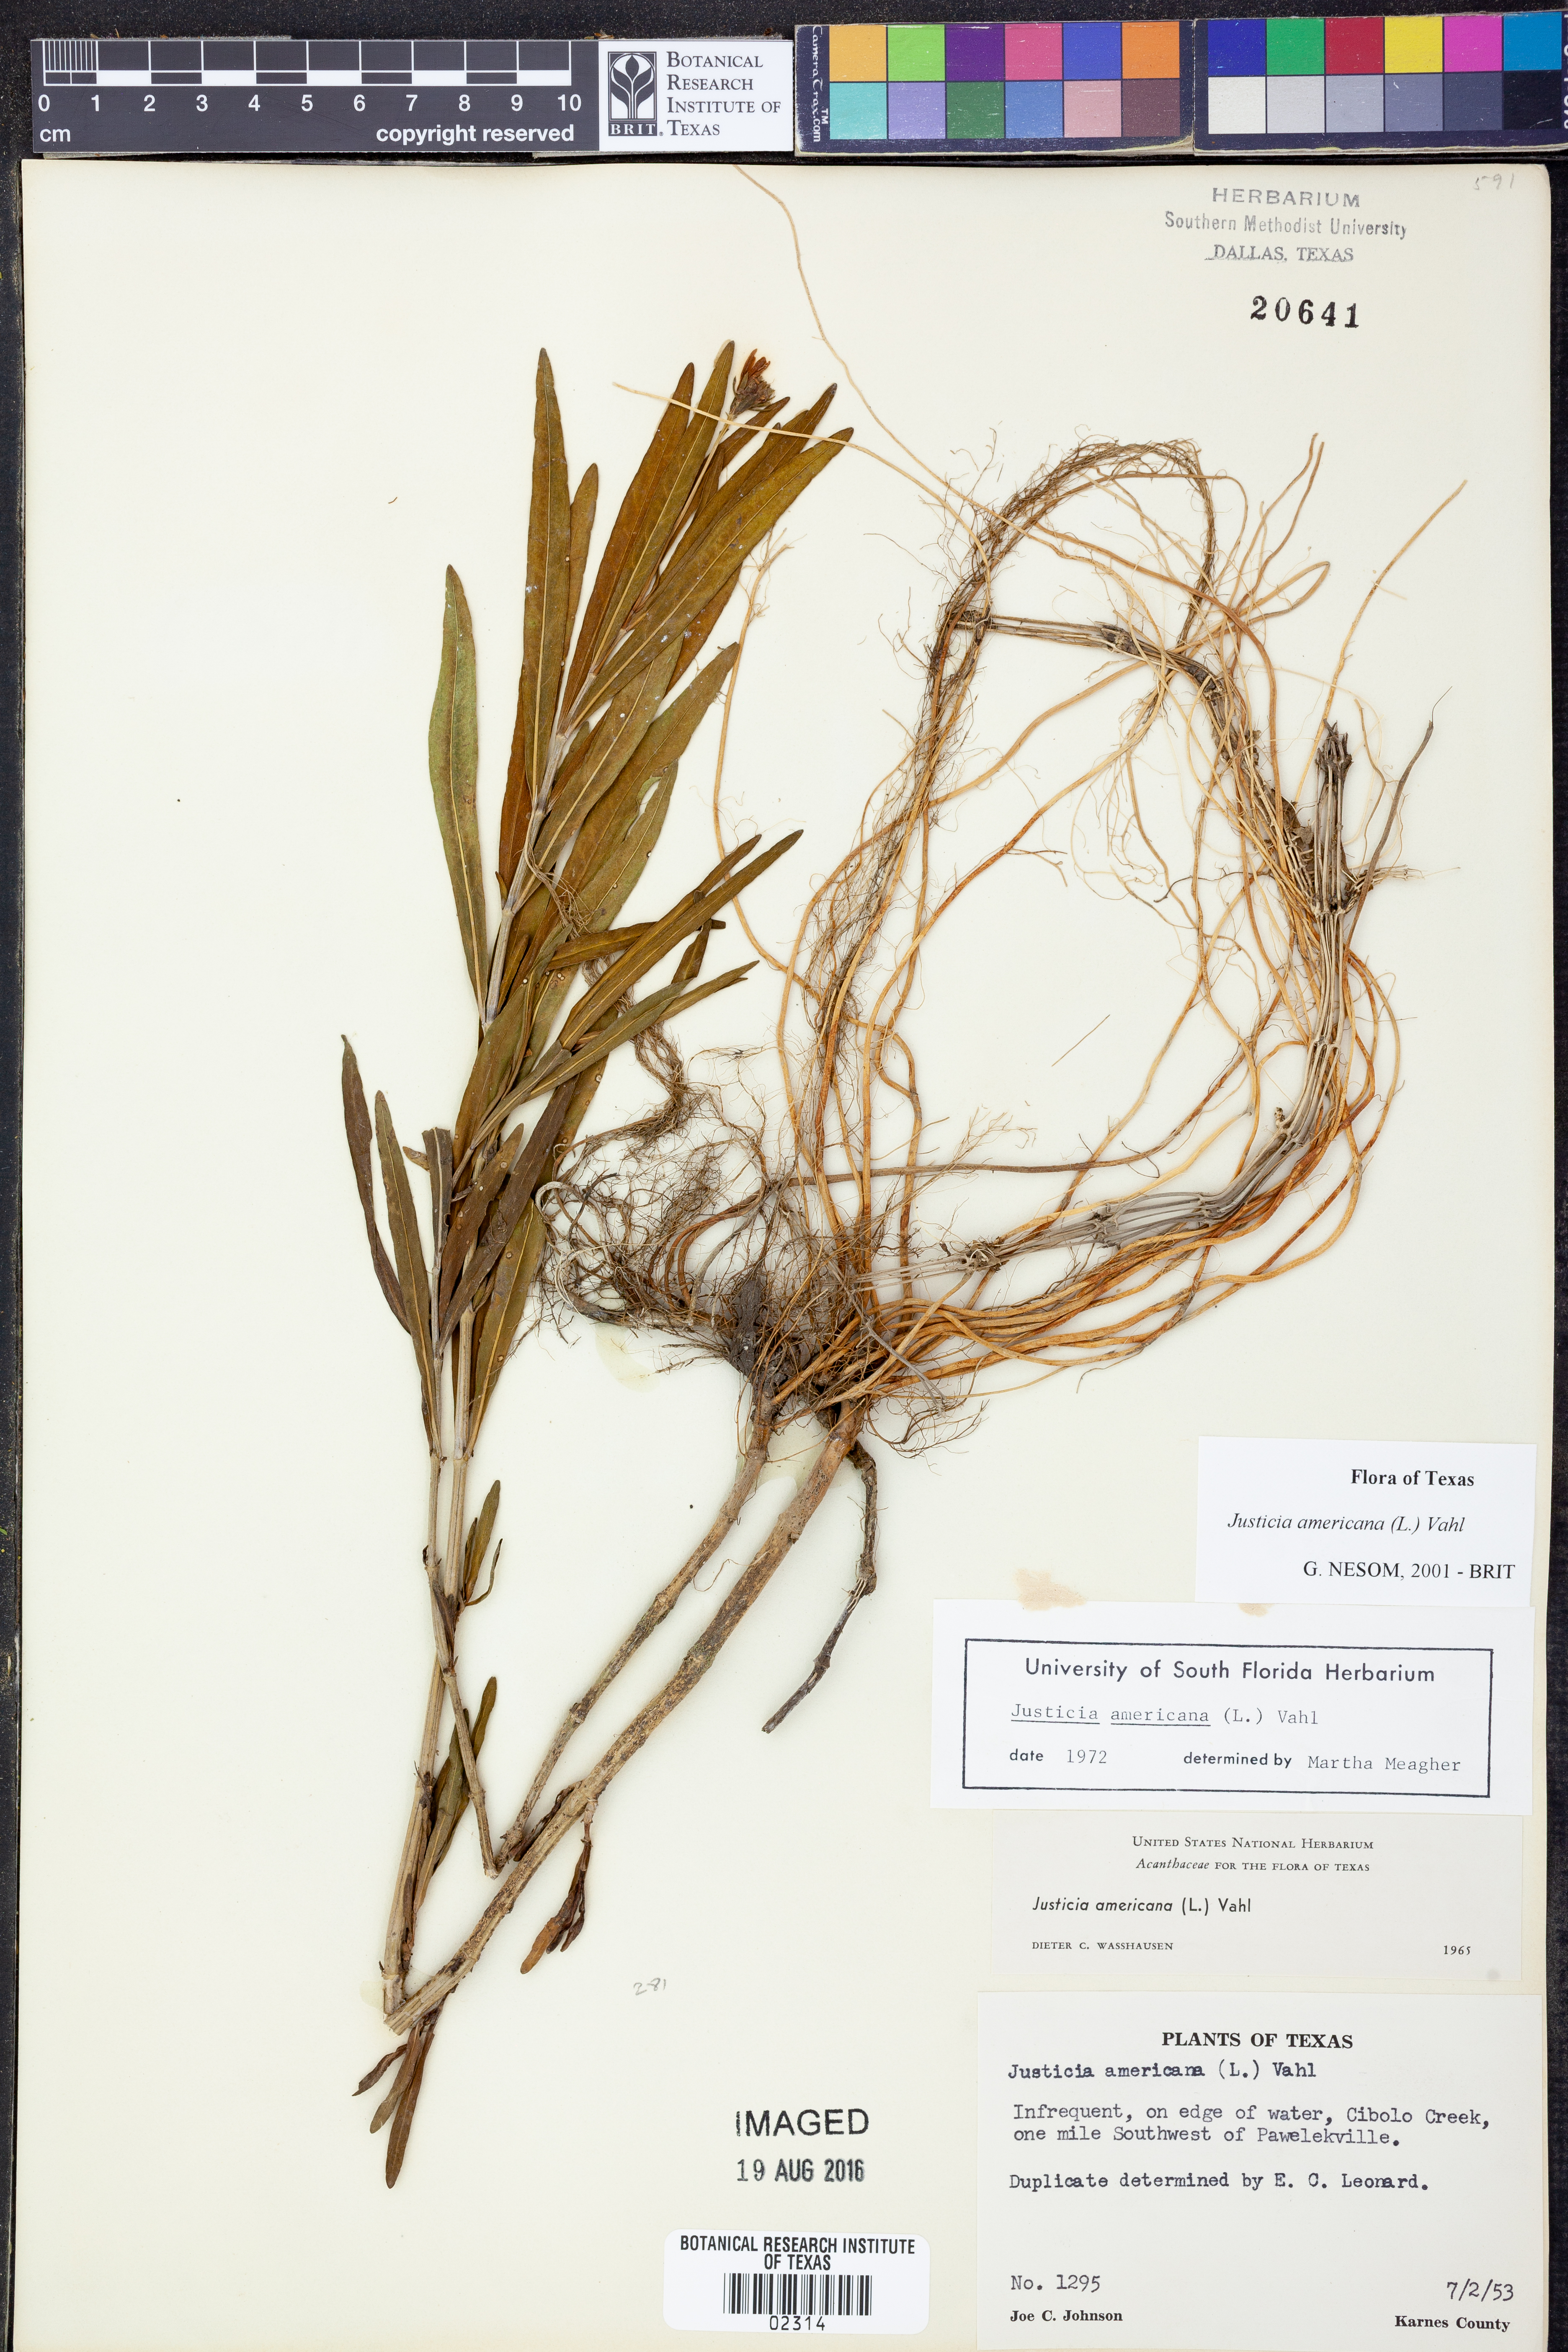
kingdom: Plantae
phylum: Tracheophyta
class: Magnoliopsida
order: Lamiales
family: Acanthaceae
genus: Dianthera
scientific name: Dianthera americana
